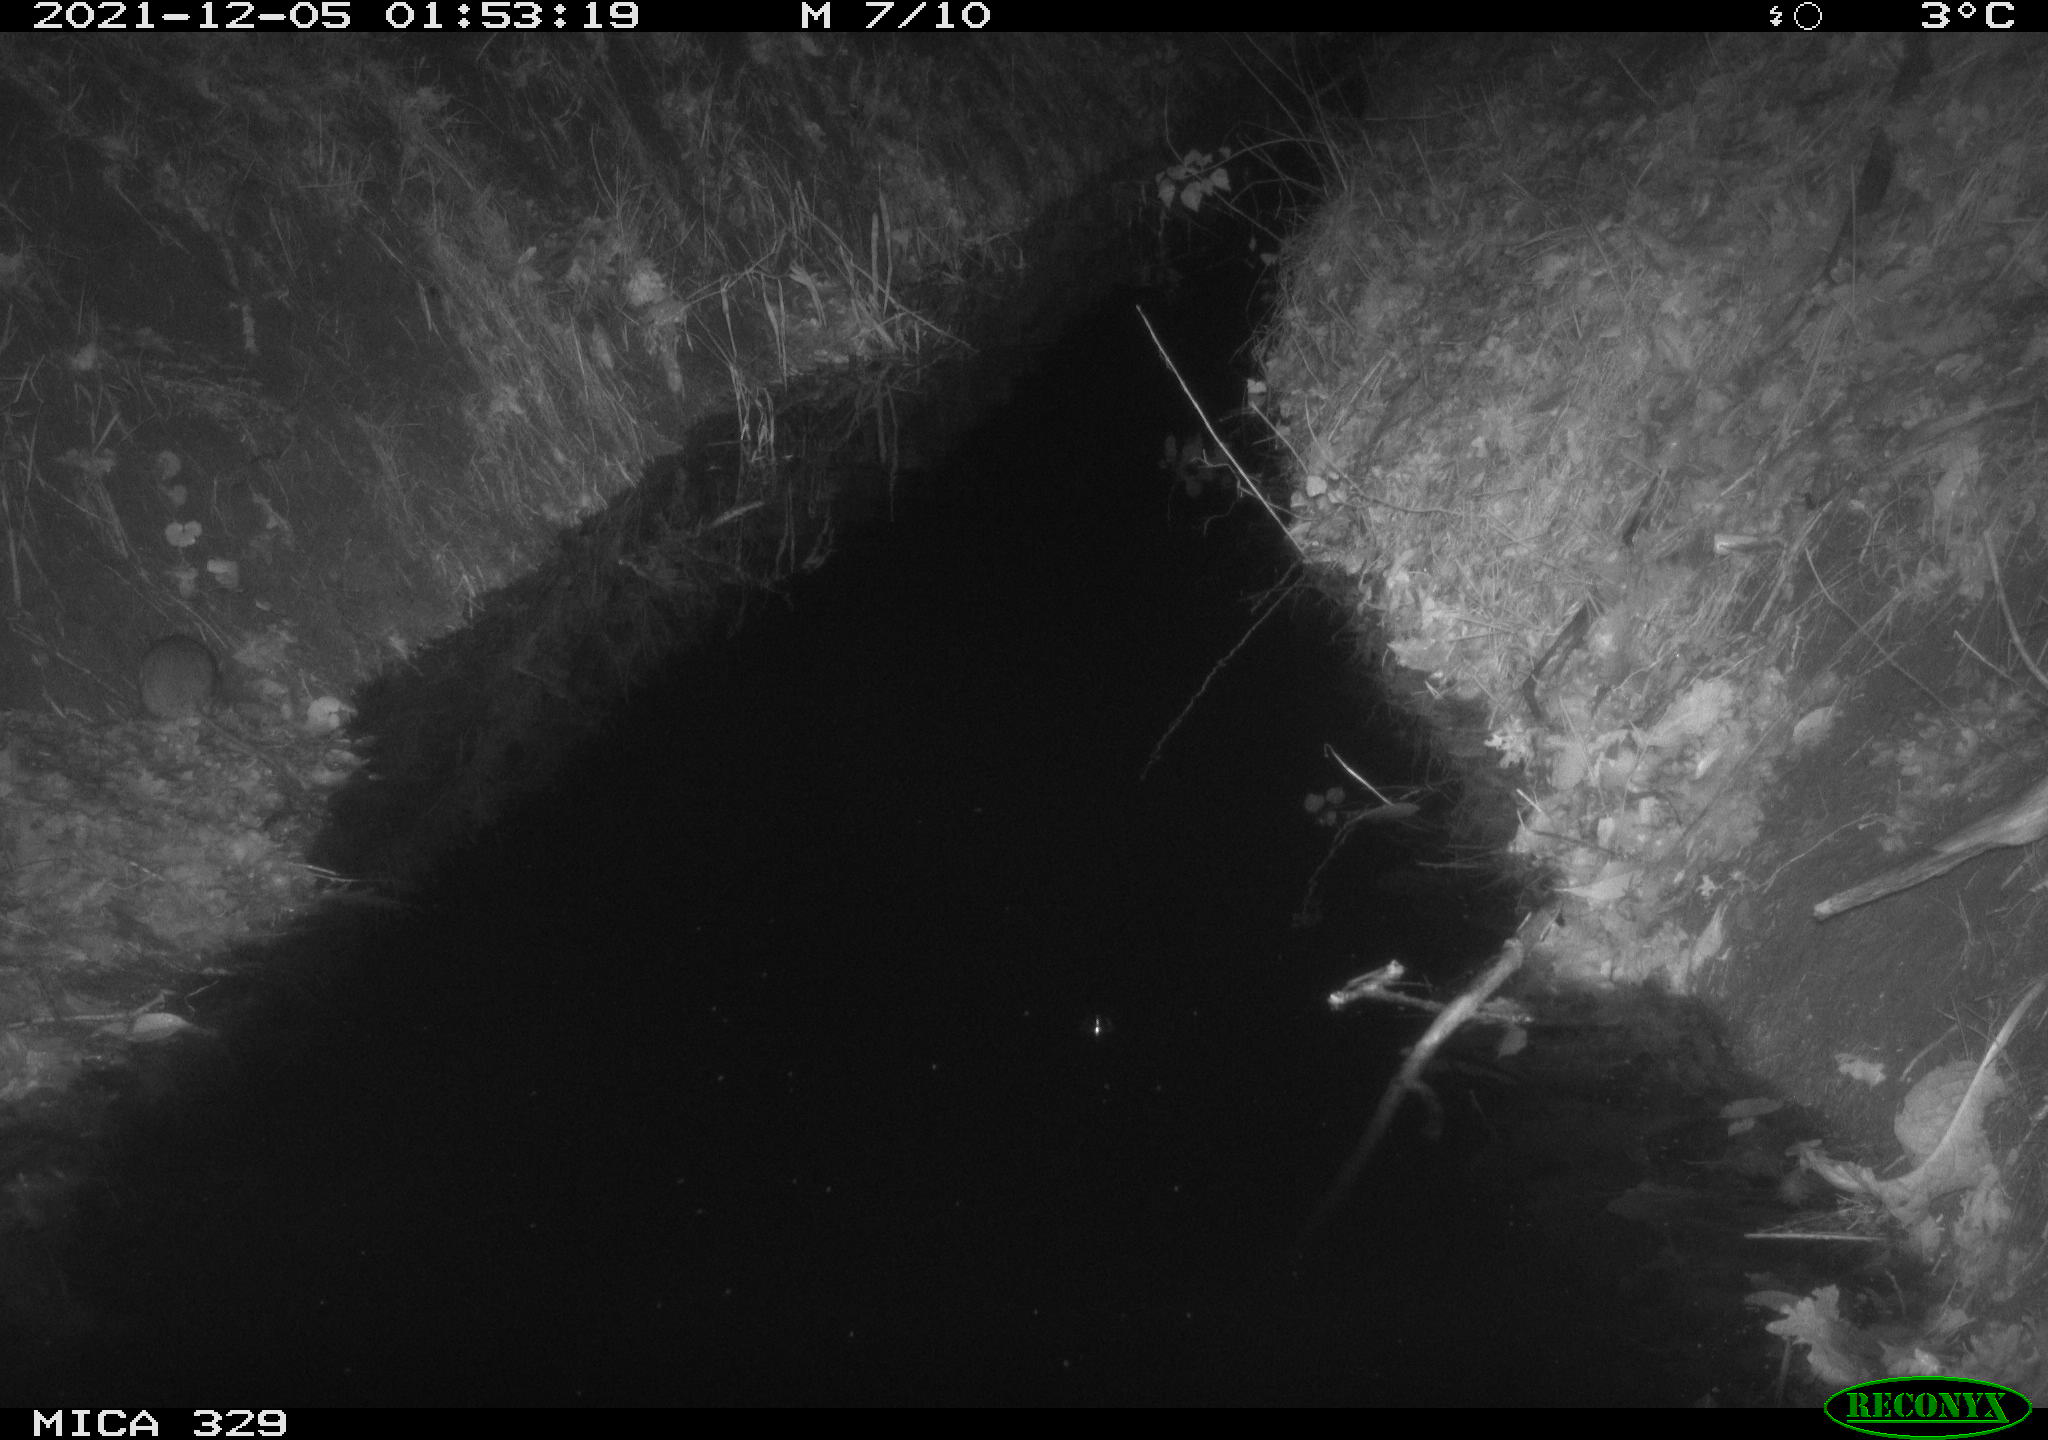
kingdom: Animalia
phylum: Chordata
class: Mammalia
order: Rodentia
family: Muridae
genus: Rattus
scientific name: Rattus norvegicus
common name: Brown rat
